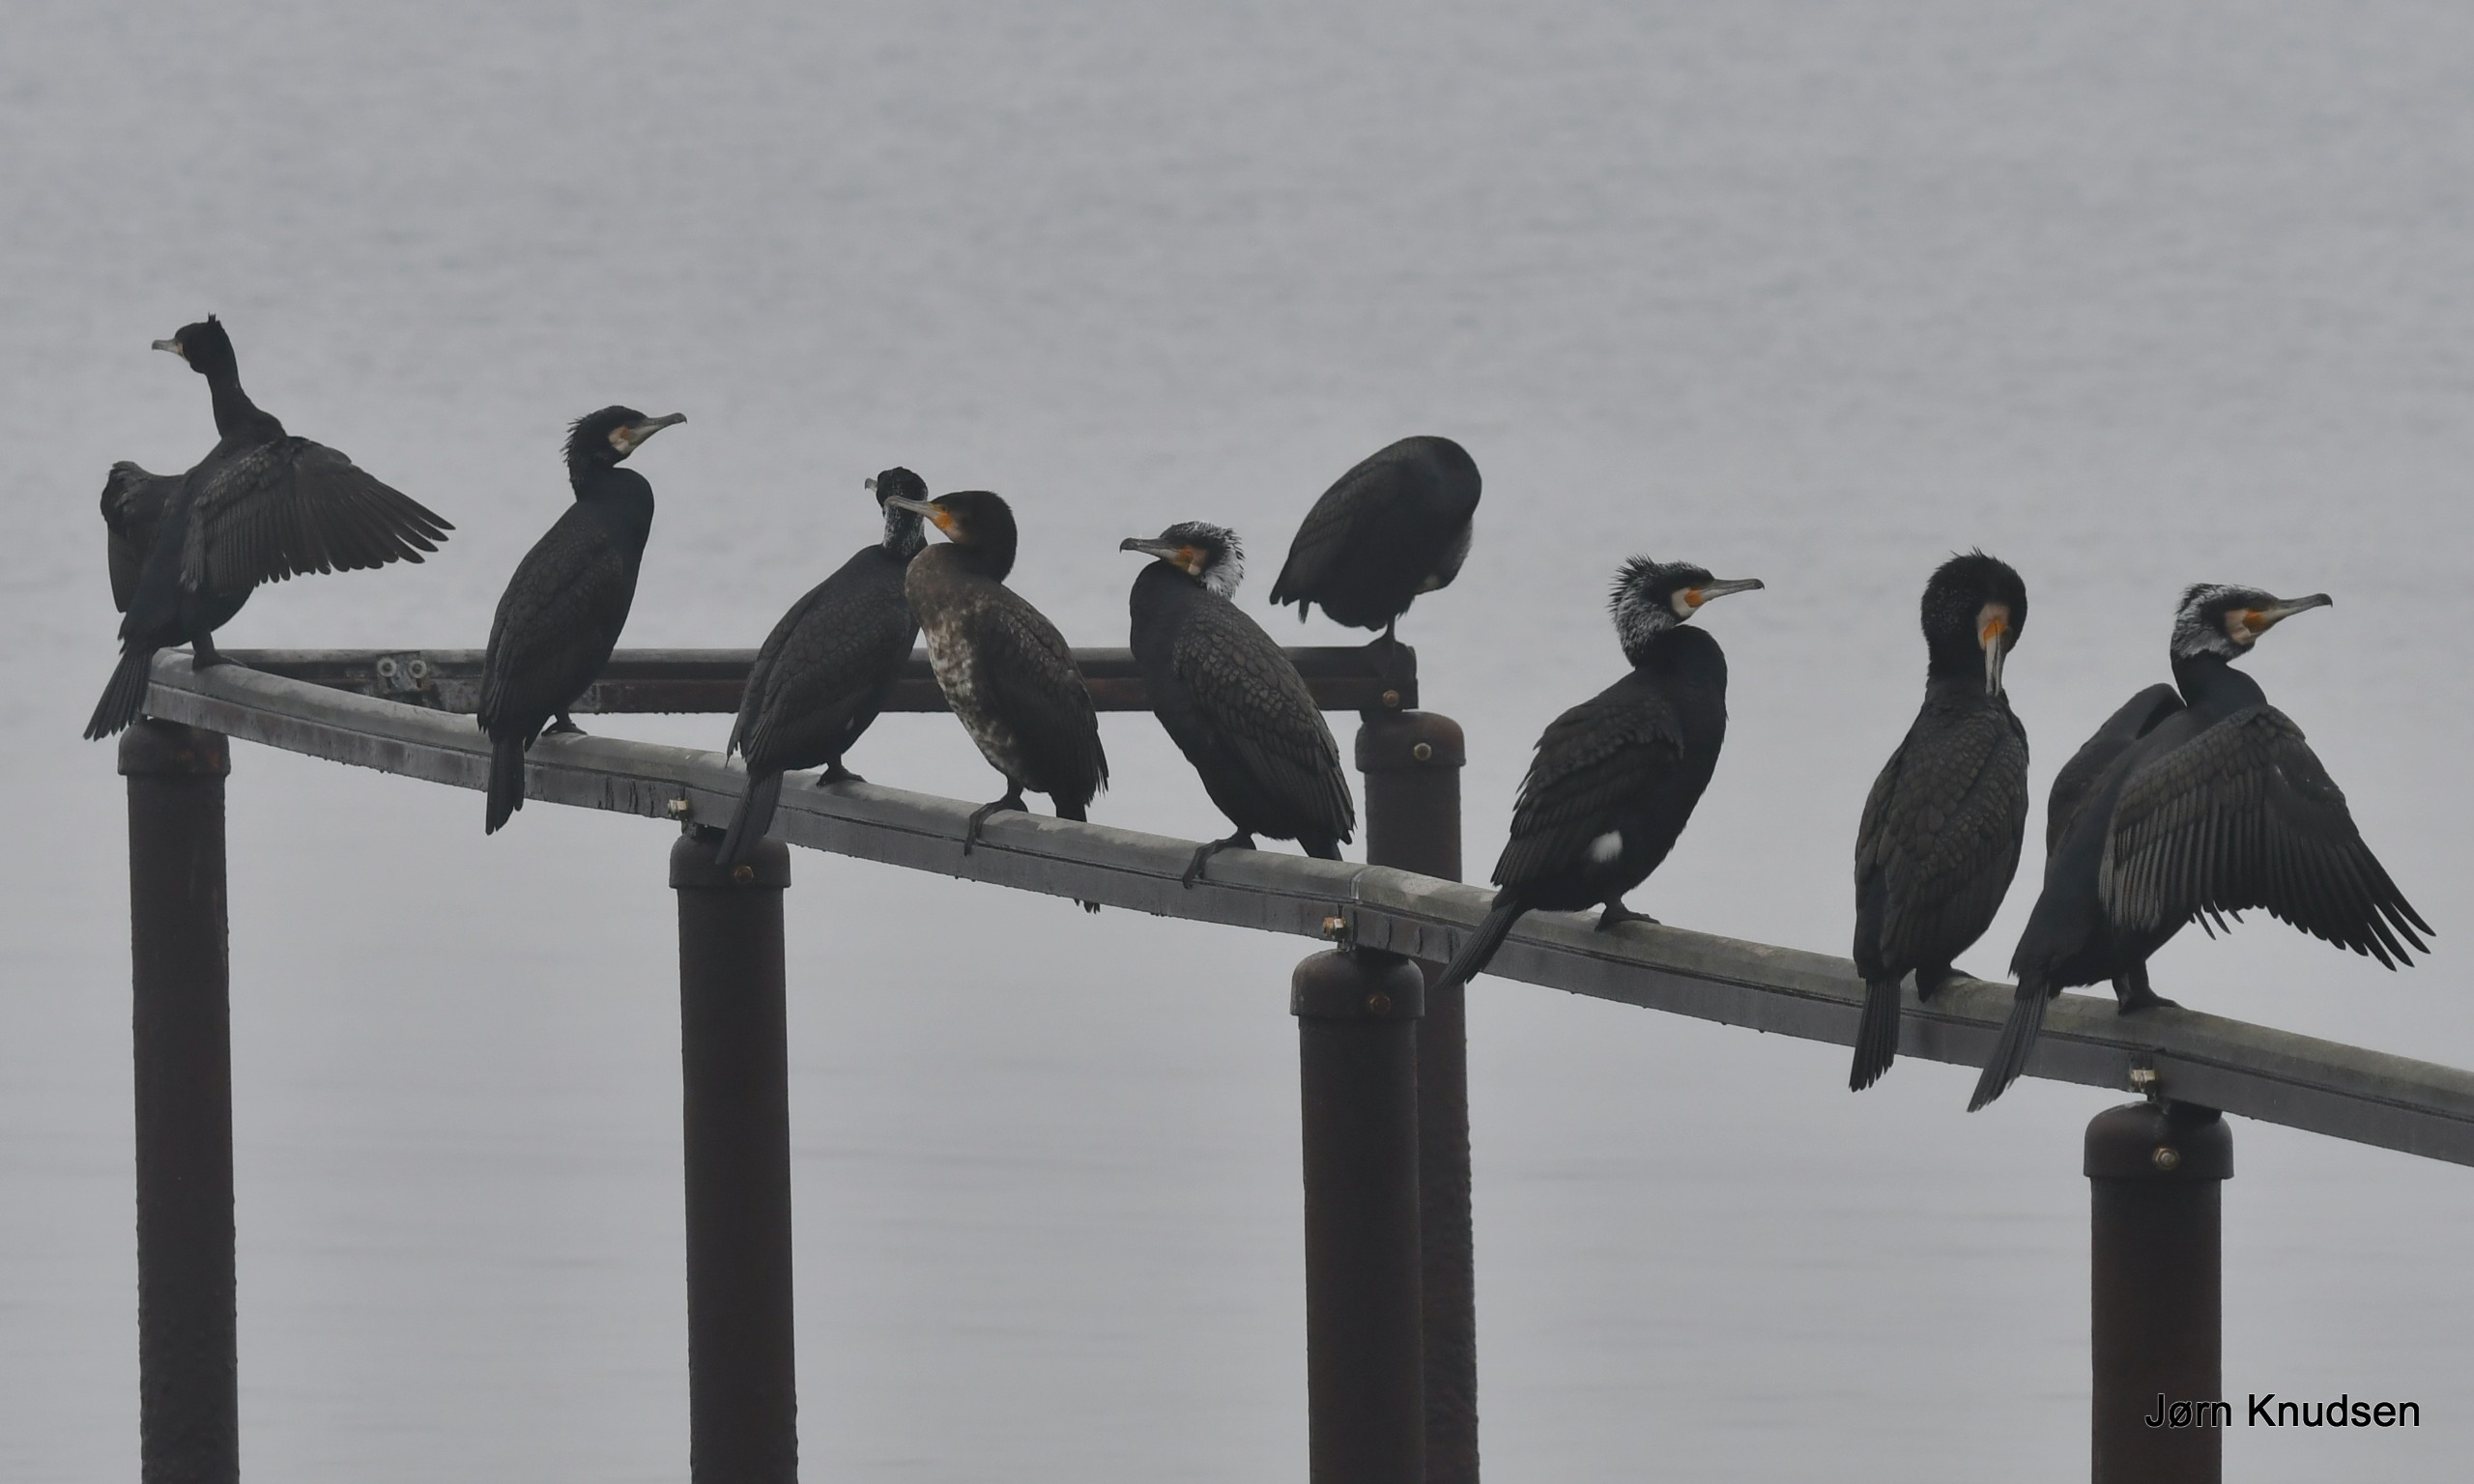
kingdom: Animalia
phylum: Chordata
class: Aves
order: Suliformes
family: Phalacrocoracidae
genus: Phalacrocorax
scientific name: Phalacrocorax carbo
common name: Mellemskarv
